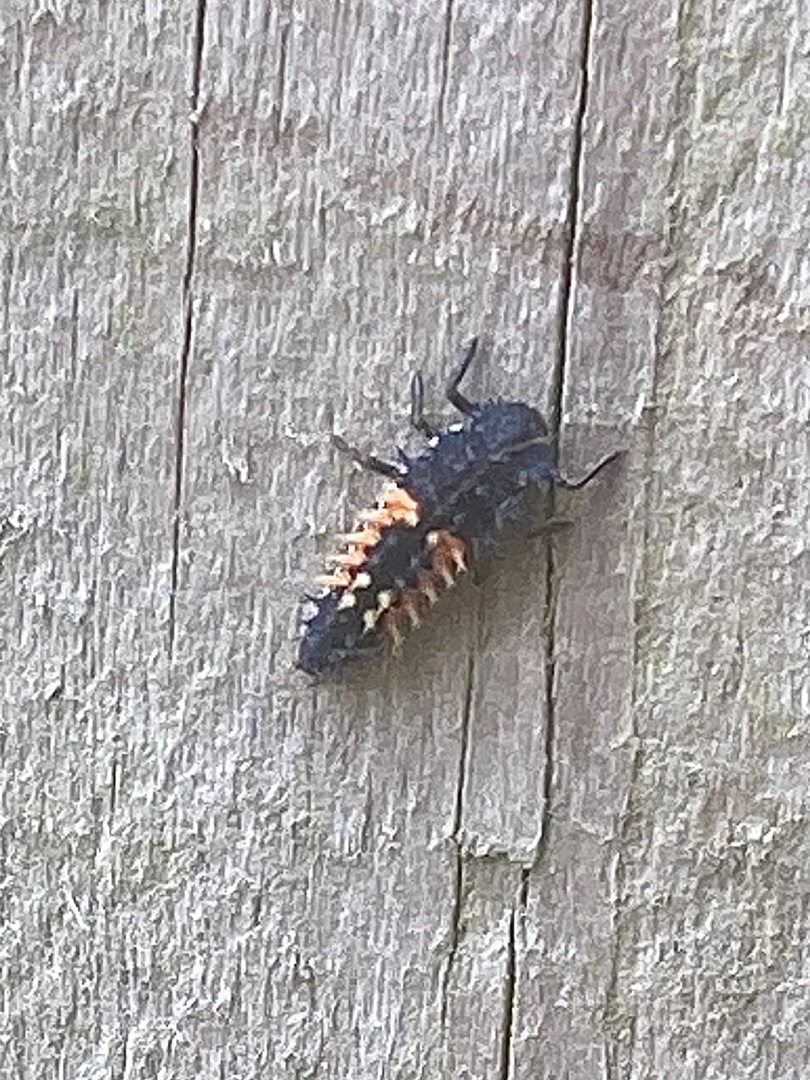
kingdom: Animalia
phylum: Arthropoda
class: Insecta
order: Coleoptera
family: Coccinellidae
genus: Harmonia
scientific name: Harmonia axyridis
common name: Harlekinmariehøne
